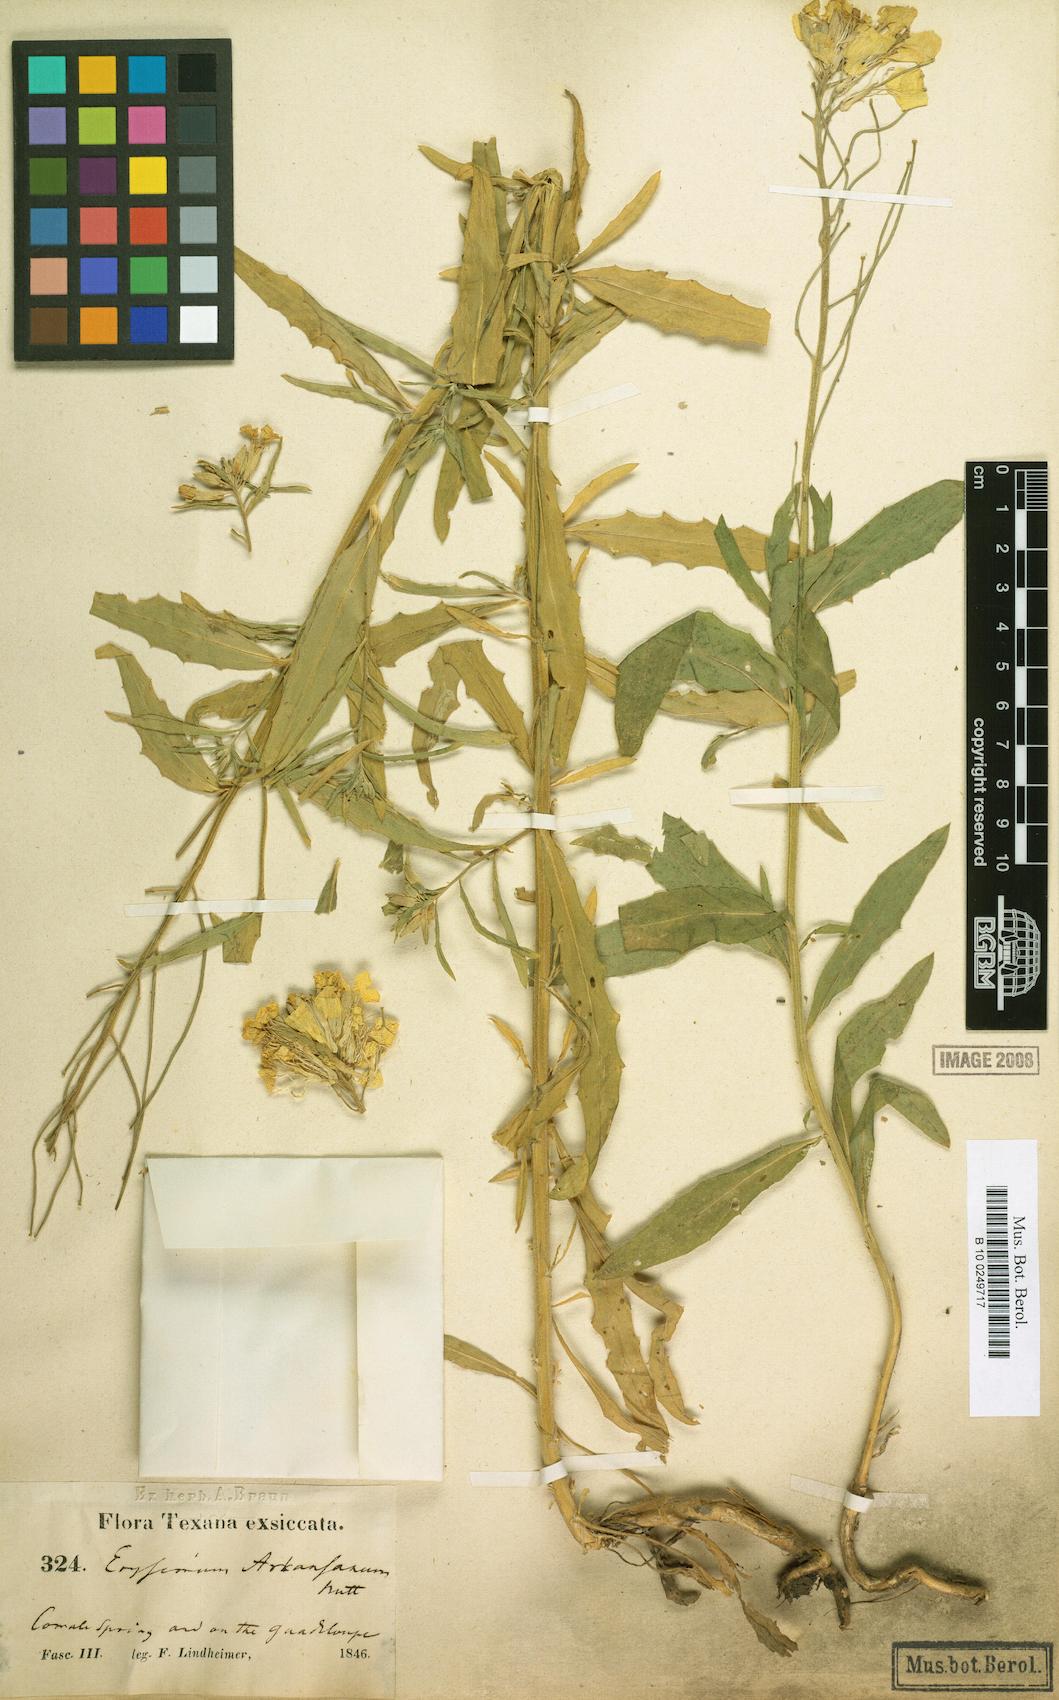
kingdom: Plantae
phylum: Tracheophyta
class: Magnoliopsida
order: Brassicales
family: Brassicaceae
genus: Erysimum
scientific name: Erysimum arkansanum
